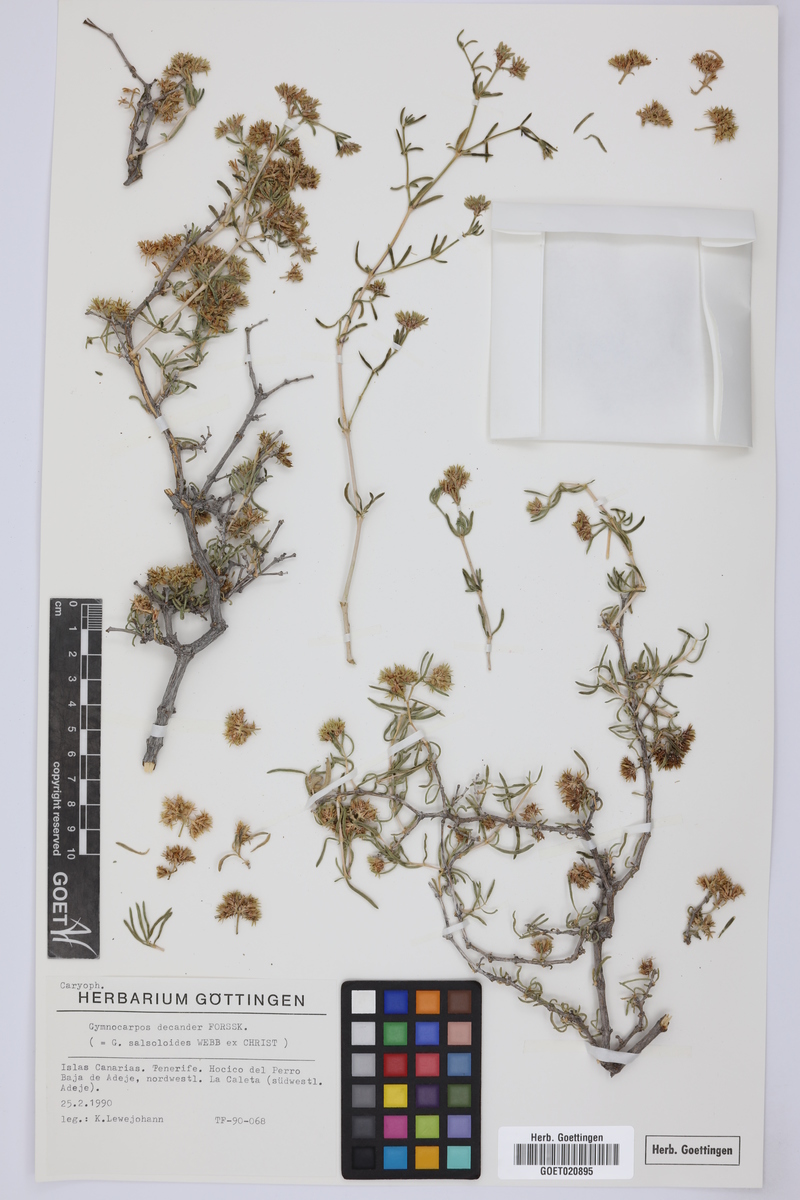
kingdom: Plantae
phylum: Tracheophyta
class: Magnoliopsida
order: Caryophyllales
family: Caryophyllaceae
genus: Gymnocarpos
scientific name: Gymnocarpos decandrus
